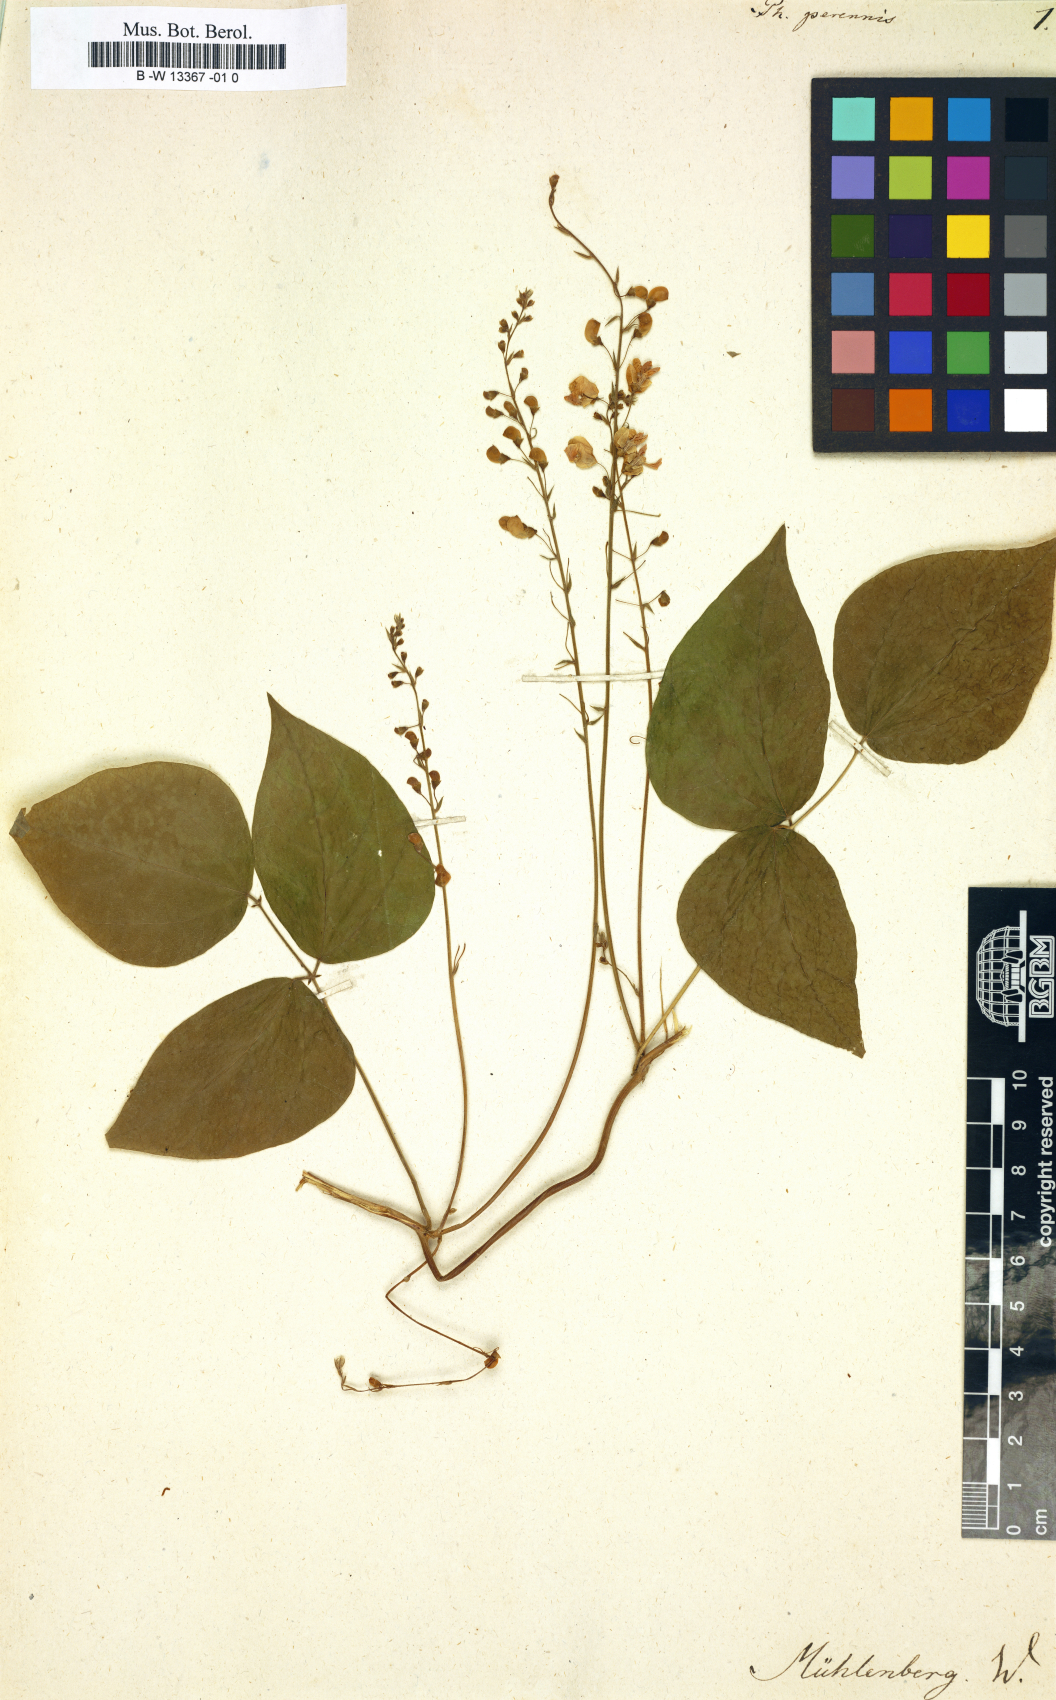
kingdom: Plantae
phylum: Tracheophyta
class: Magnoliopsida
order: Fabales
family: Fabaceae
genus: Phaseolus
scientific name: Phaseolus polystachios
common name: Thicket bean
